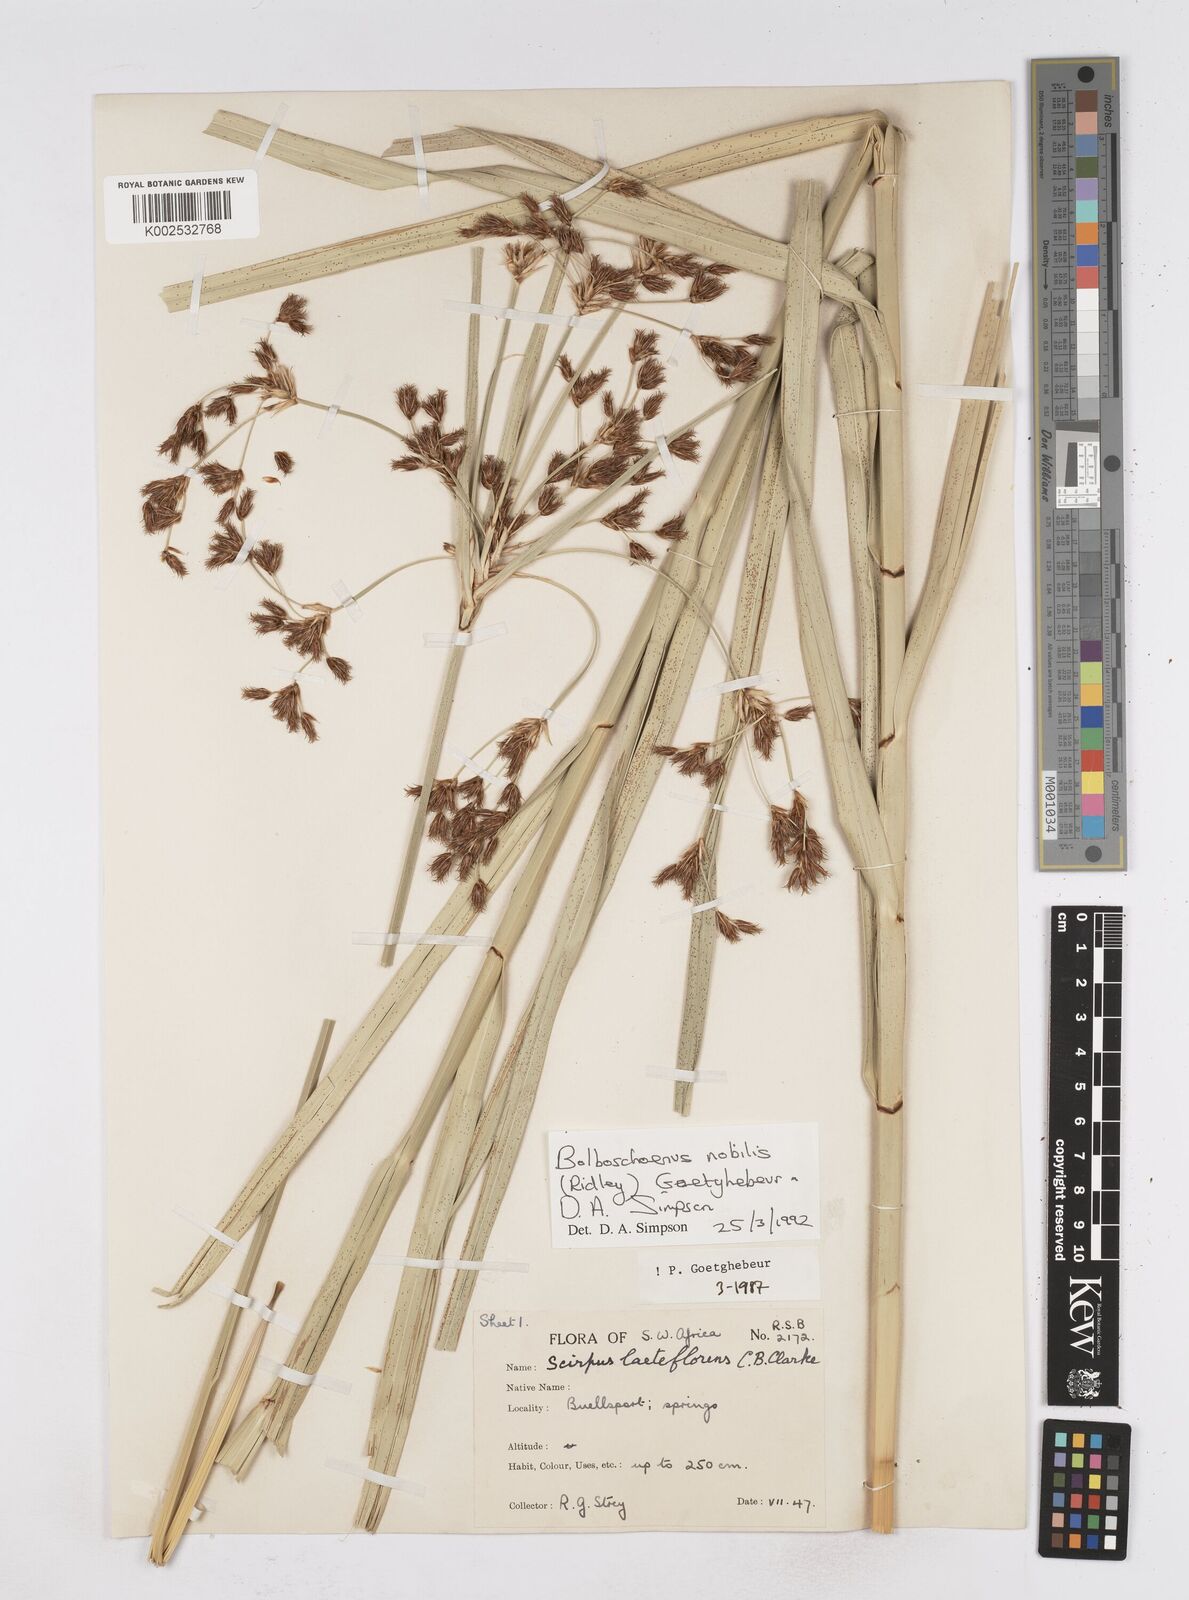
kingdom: Plantae
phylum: Tracheophyta
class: Liliopsida
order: Poales
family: Cyperaceae
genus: Bolboschoenus
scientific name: Bolboschoenus nobilis
